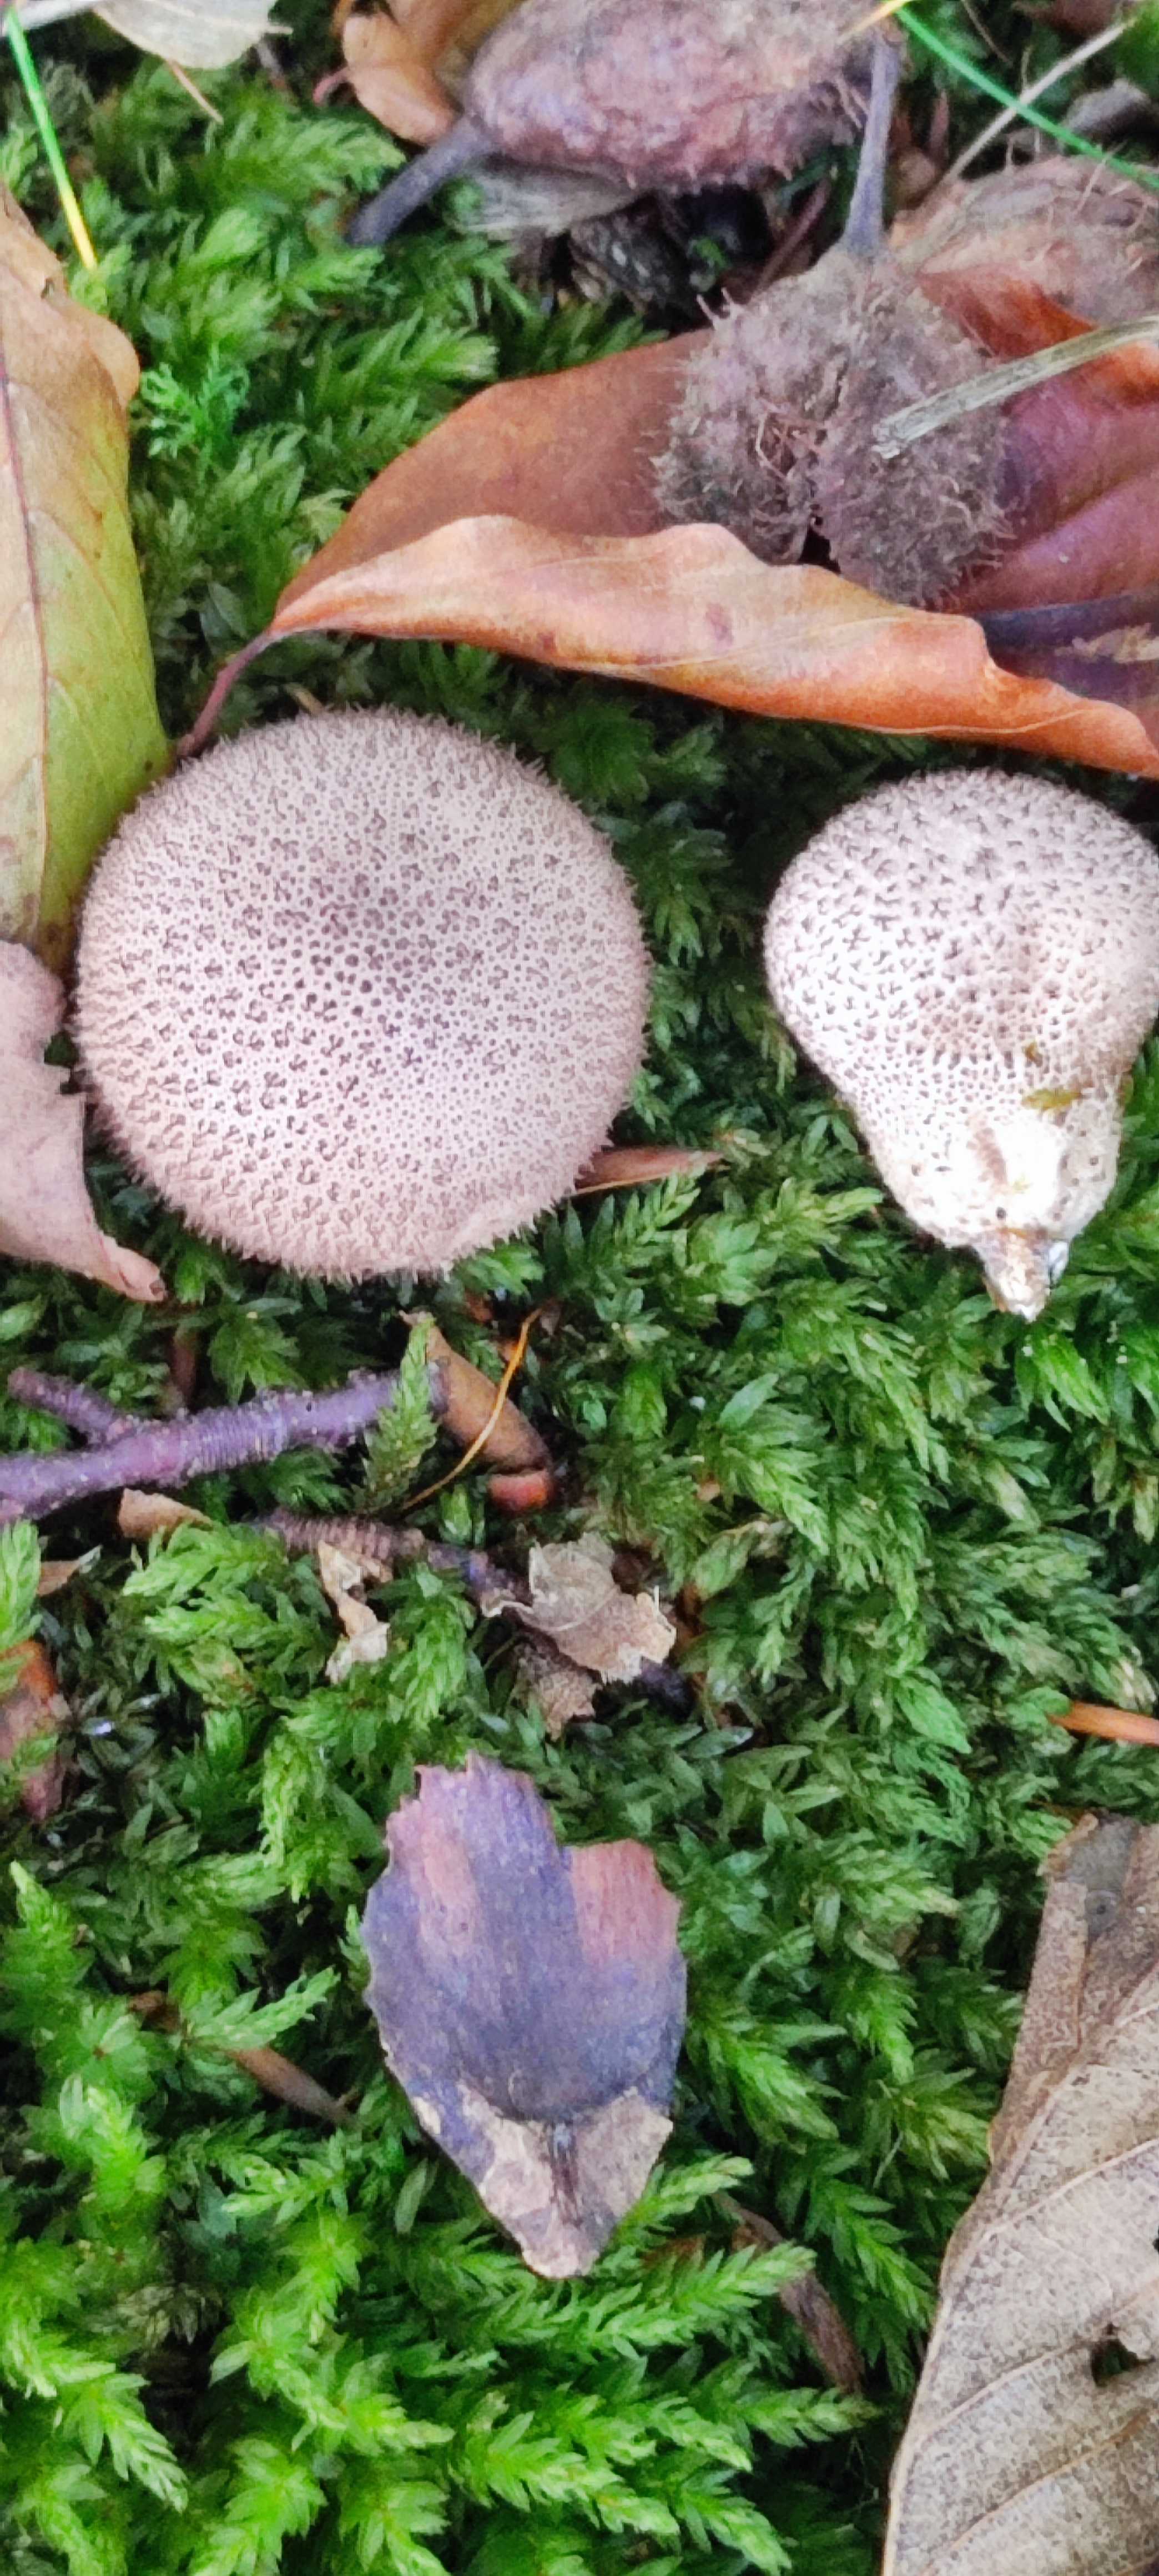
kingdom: Fungi
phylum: Basidiomycota
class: Agaricomycetes
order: Agaricales
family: Lycoperdaceae
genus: Lycoperdon
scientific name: Lycoperdon perlatum
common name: krystal-støvbold
